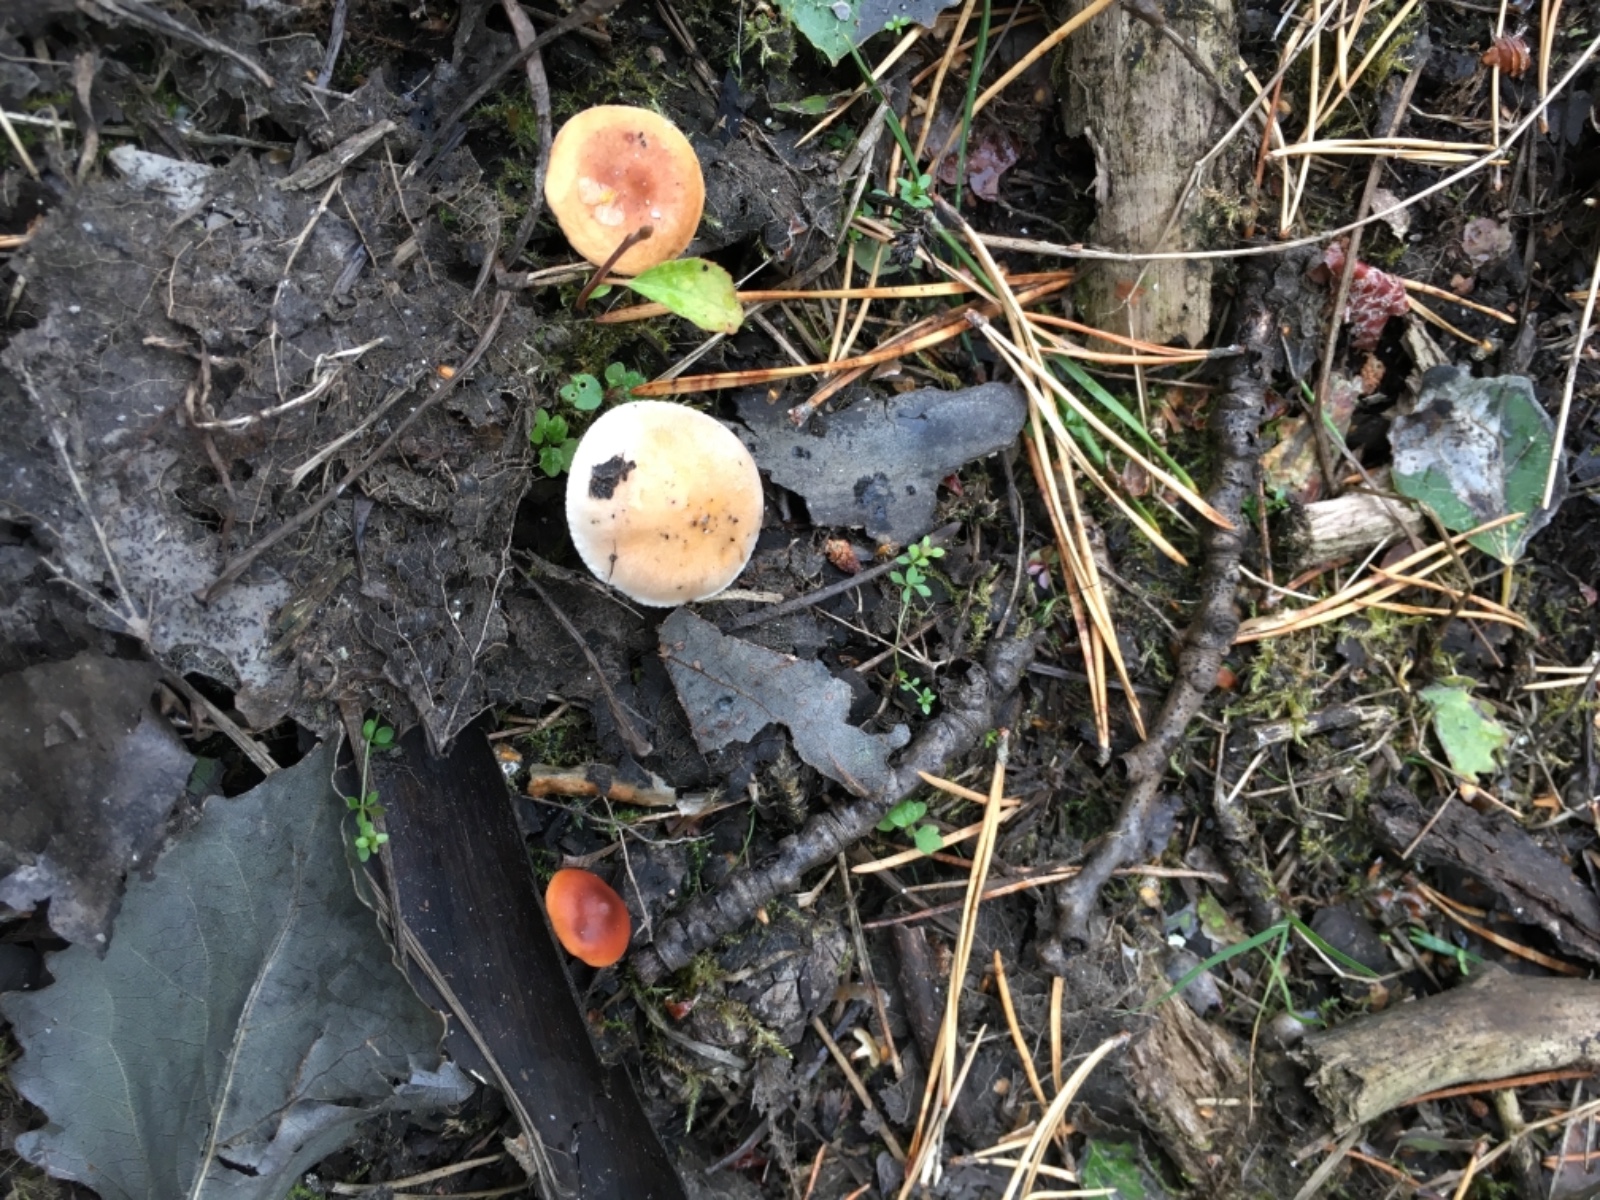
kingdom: Fungi
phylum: Basidiomycota
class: Agaricomycetes
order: Agaricales
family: Hymenogastraceae
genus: Hebeloma
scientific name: Hebeloma
